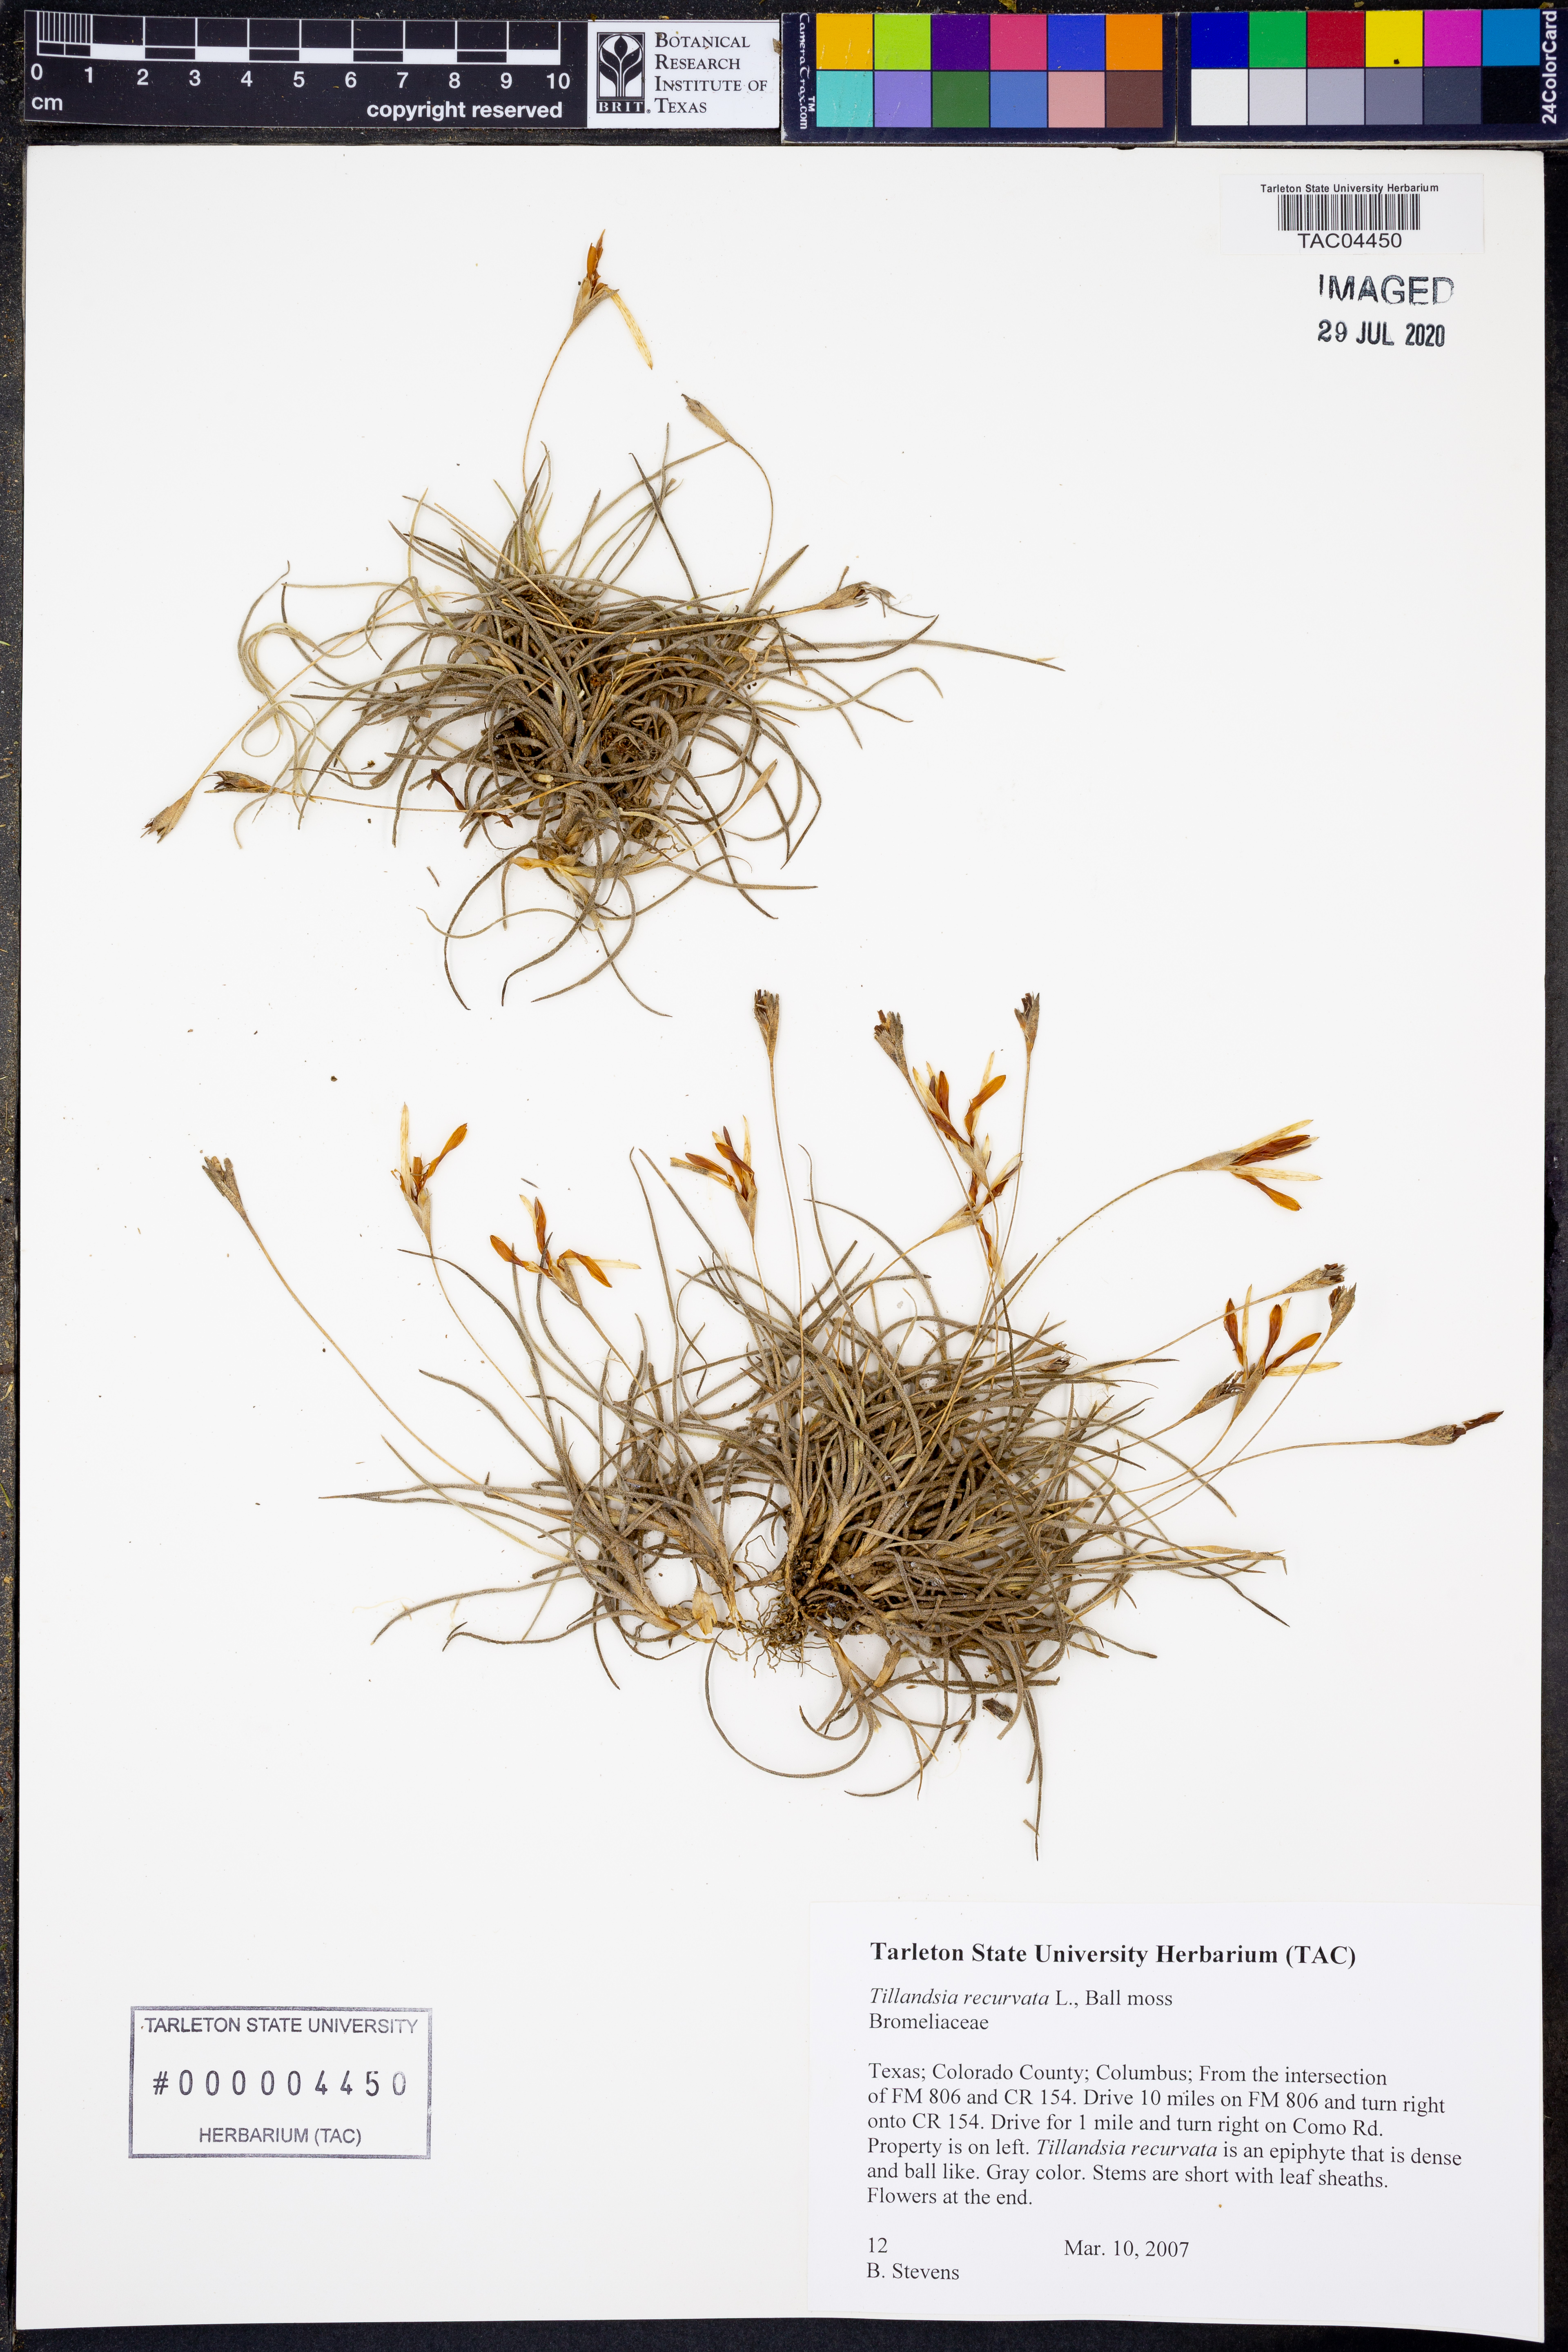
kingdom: Plantae
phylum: Tracheophyta
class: Liliopsida
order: Poales
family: Bromeliaceae
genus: Tillandsia
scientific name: Tillandsia recurvata
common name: Small ballmoss
